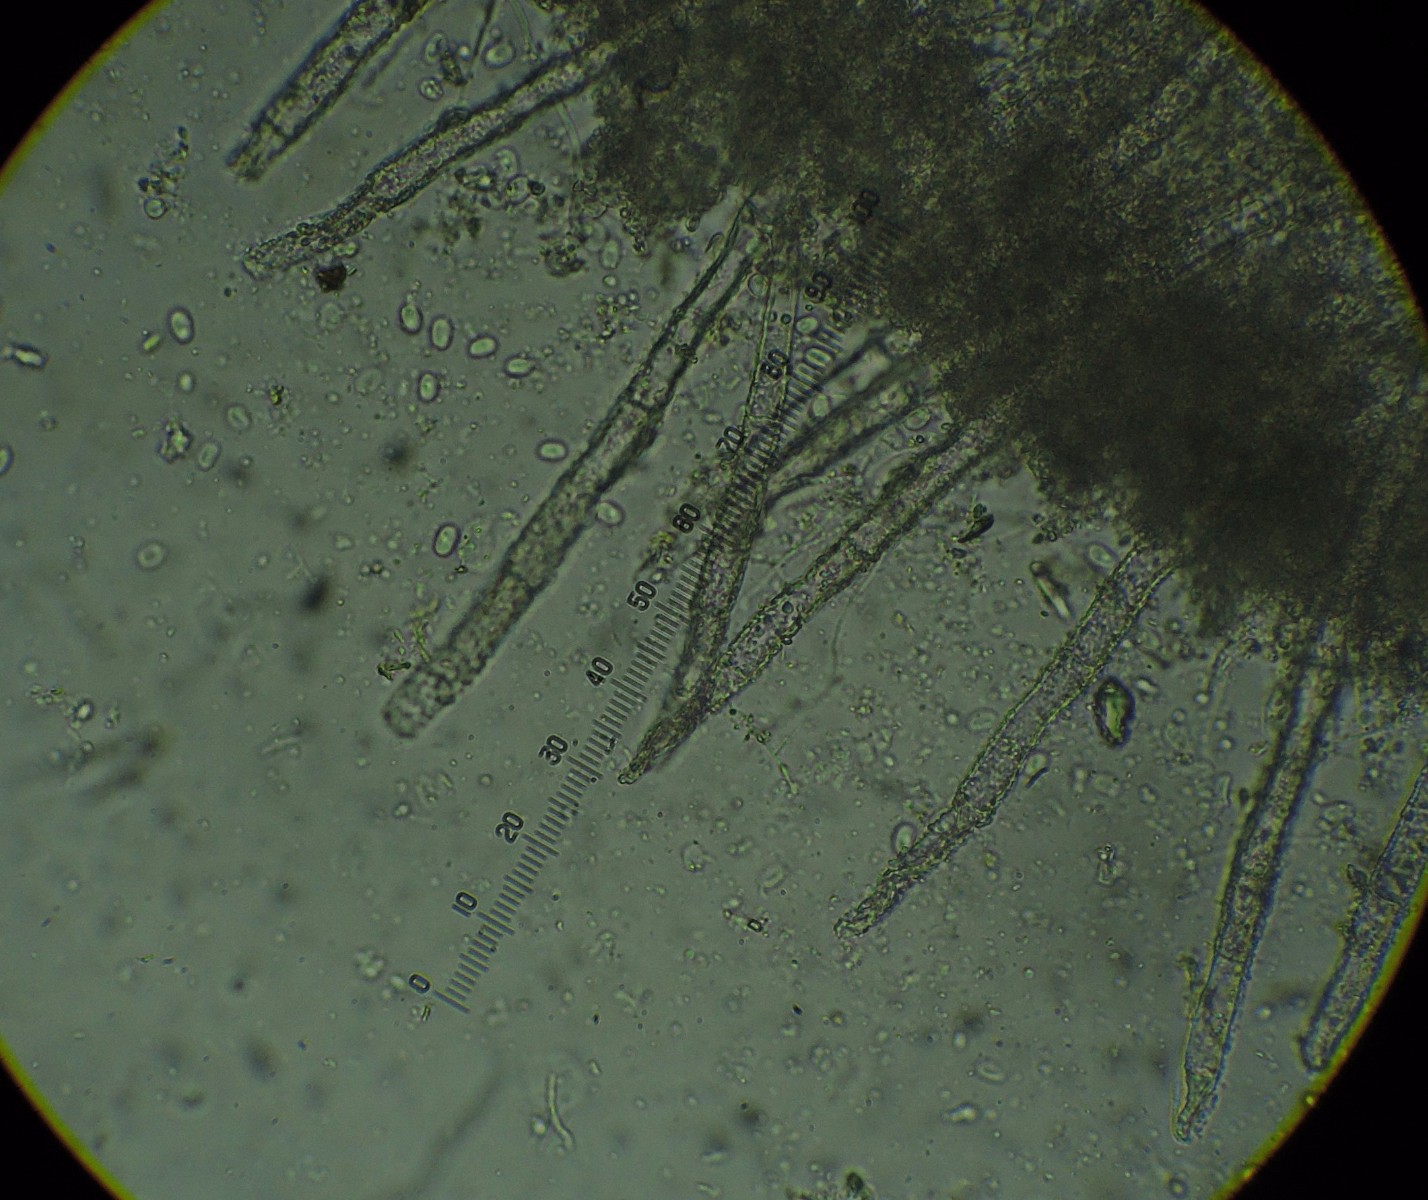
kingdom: Fungi
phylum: Basidiomycota
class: Agaricomycetes
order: Polyporales
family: Meruliaceae
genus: Gyrophanopsis
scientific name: Gyrophanopsis polonensis
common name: langhåret kalkskind
